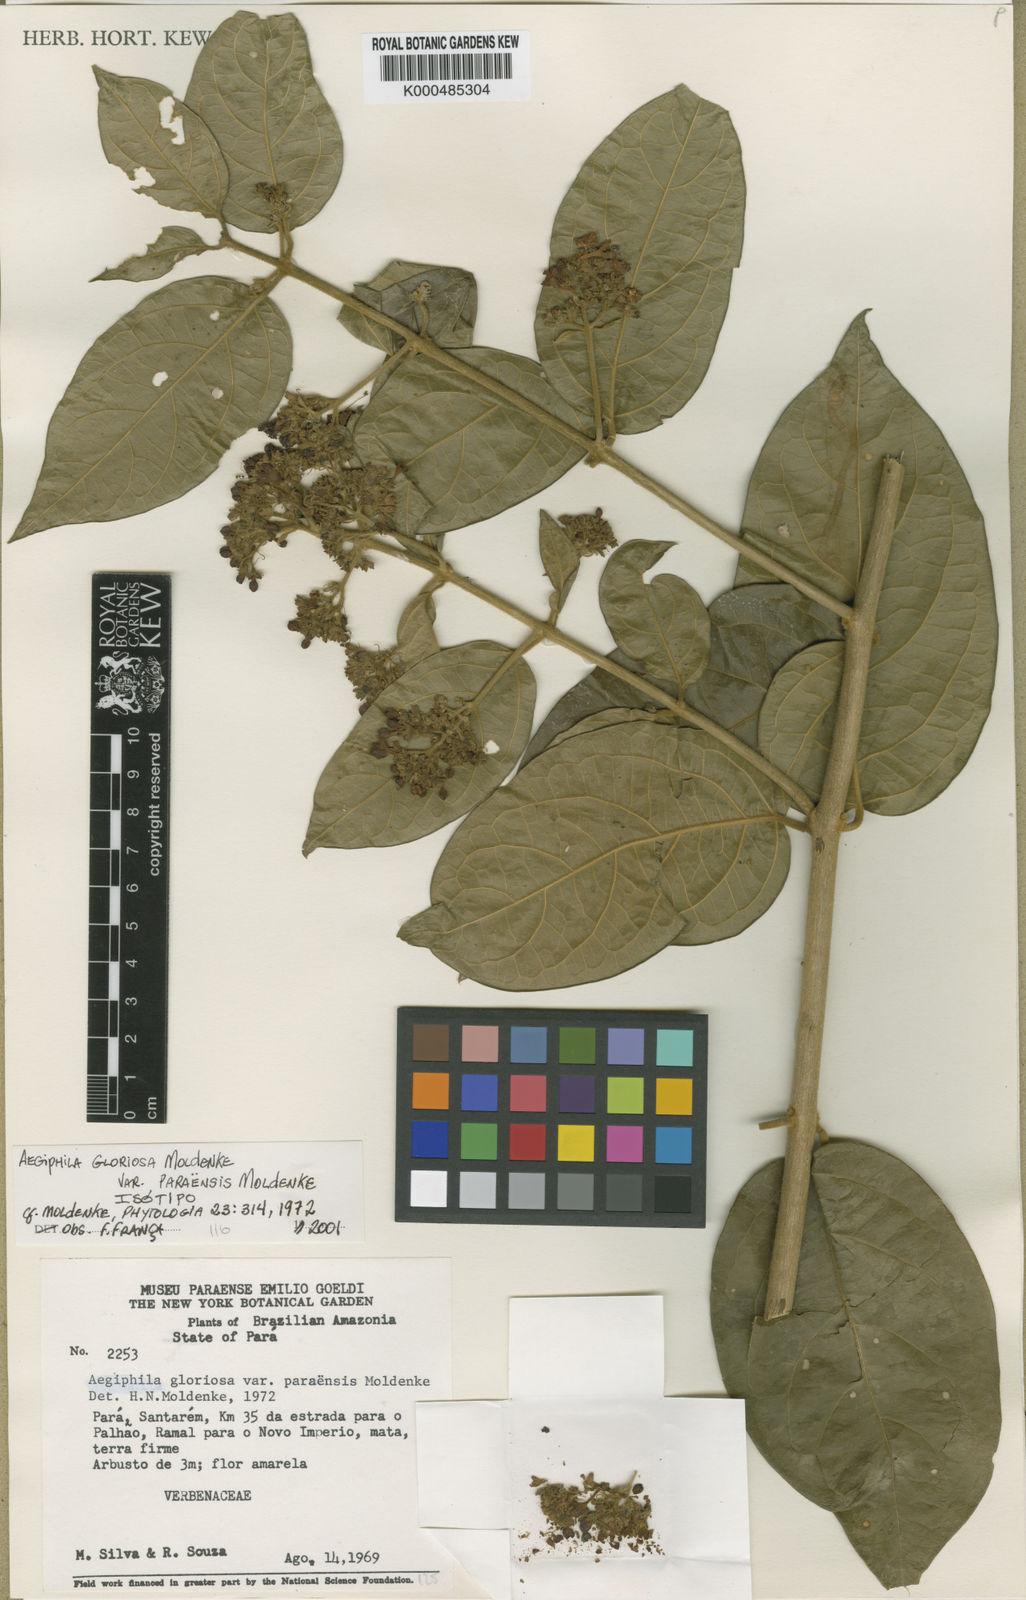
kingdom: Plantae
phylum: Tracheophyta
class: Magnoliopsida
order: Lamiales
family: Lamiaceae
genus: Aegiphila
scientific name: Aegiphila gloriosa
